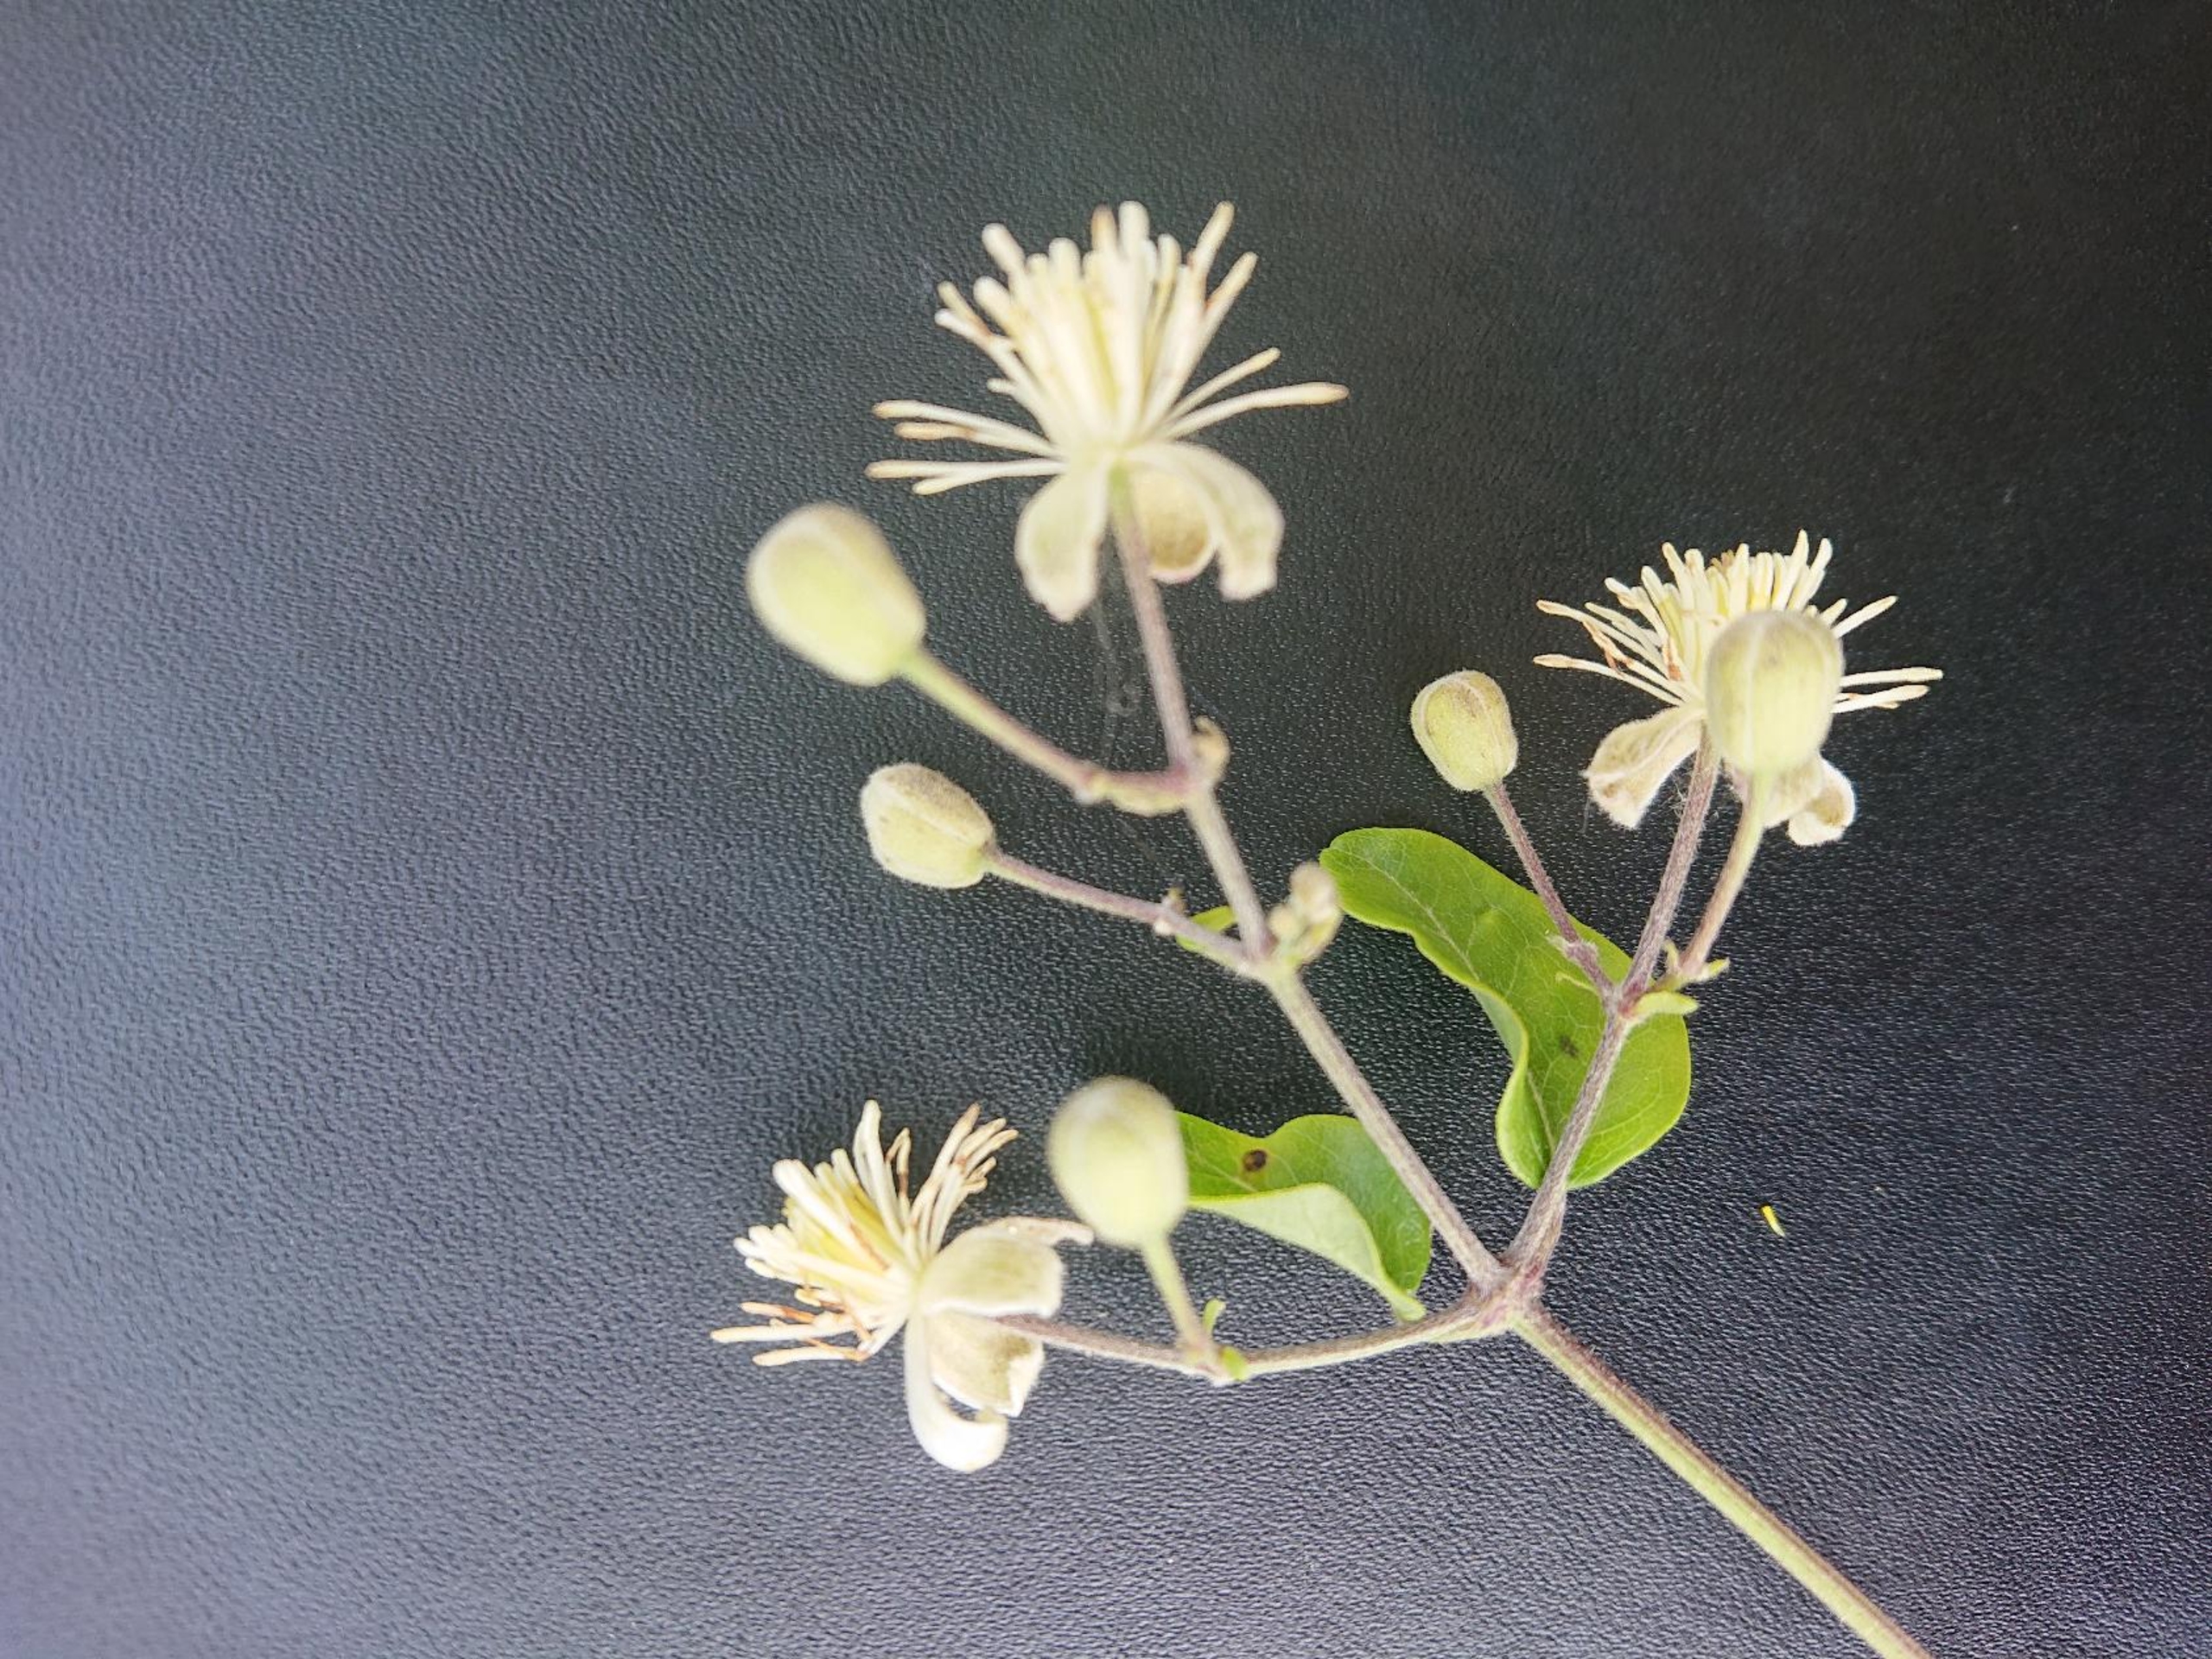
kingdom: Plantae
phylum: Tracheophyta
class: Magnoliopsida
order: Ranunculales
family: Ranunculaceae
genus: Clematis
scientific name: Clematis vitalba
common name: Skovranke
